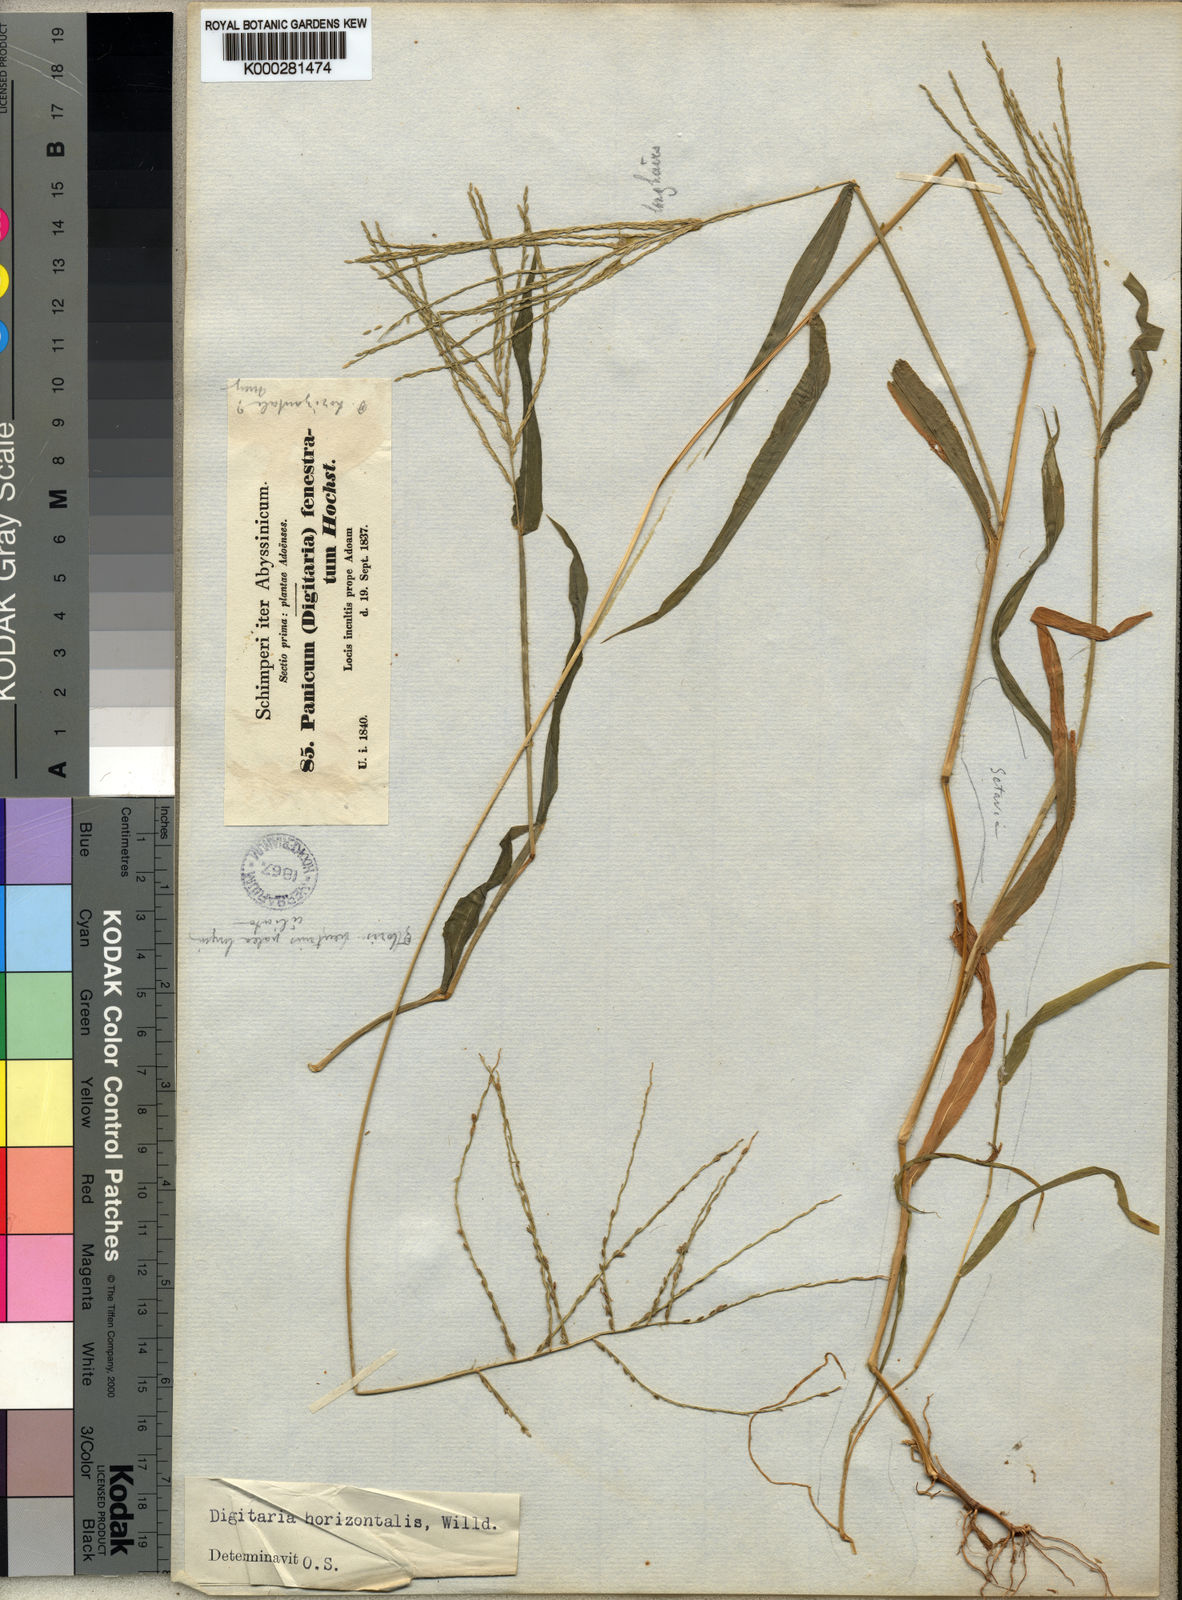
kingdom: Plantae
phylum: Tracheophyta
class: Liliopsida
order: Poales
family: Poaceae
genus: Digitaria
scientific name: Digitaria velutina
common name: Long-plume finger grass
